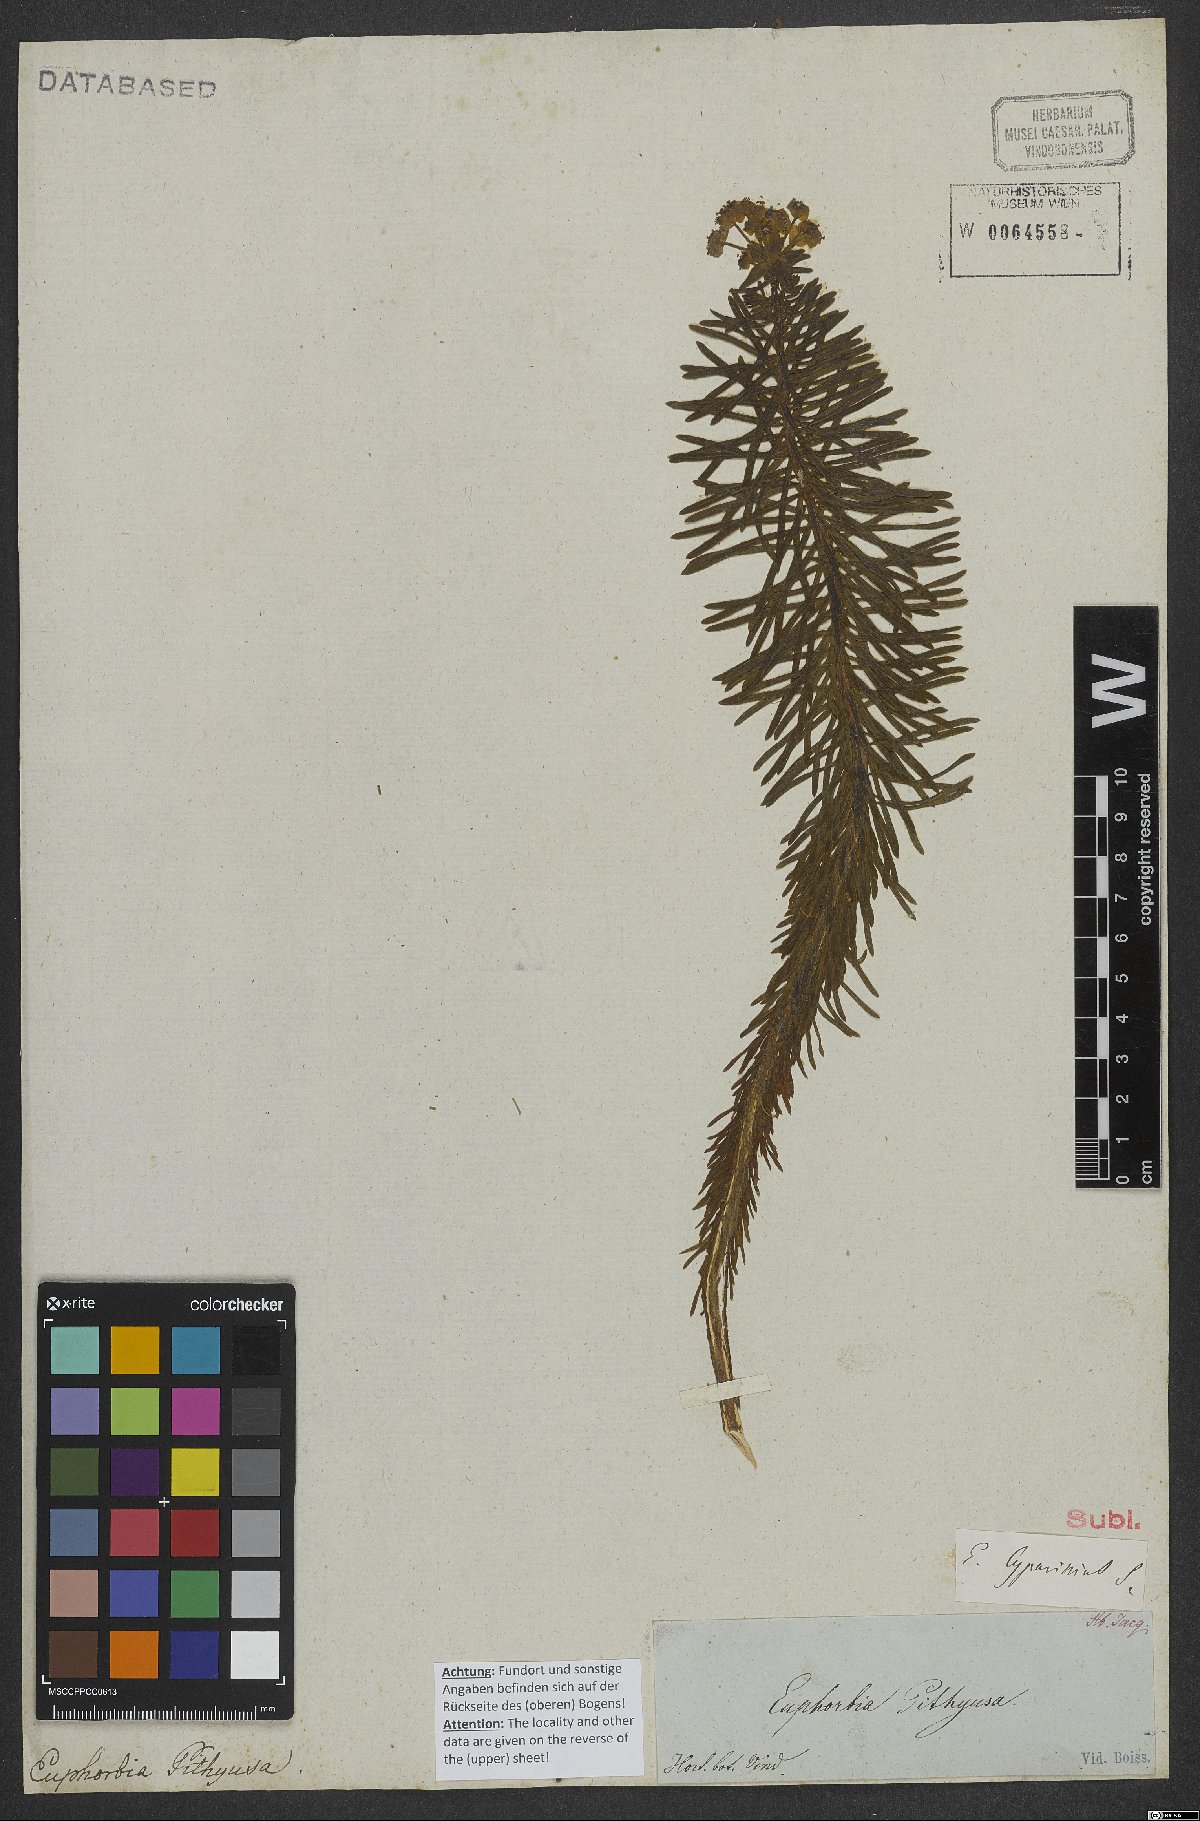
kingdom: Plantae
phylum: Tracheophyta
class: Magnoliopsida
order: Malpighiales
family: Euphorbiaceae
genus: Euphorbia
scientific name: Euphorbia cyparissias
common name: Cypress spurge
